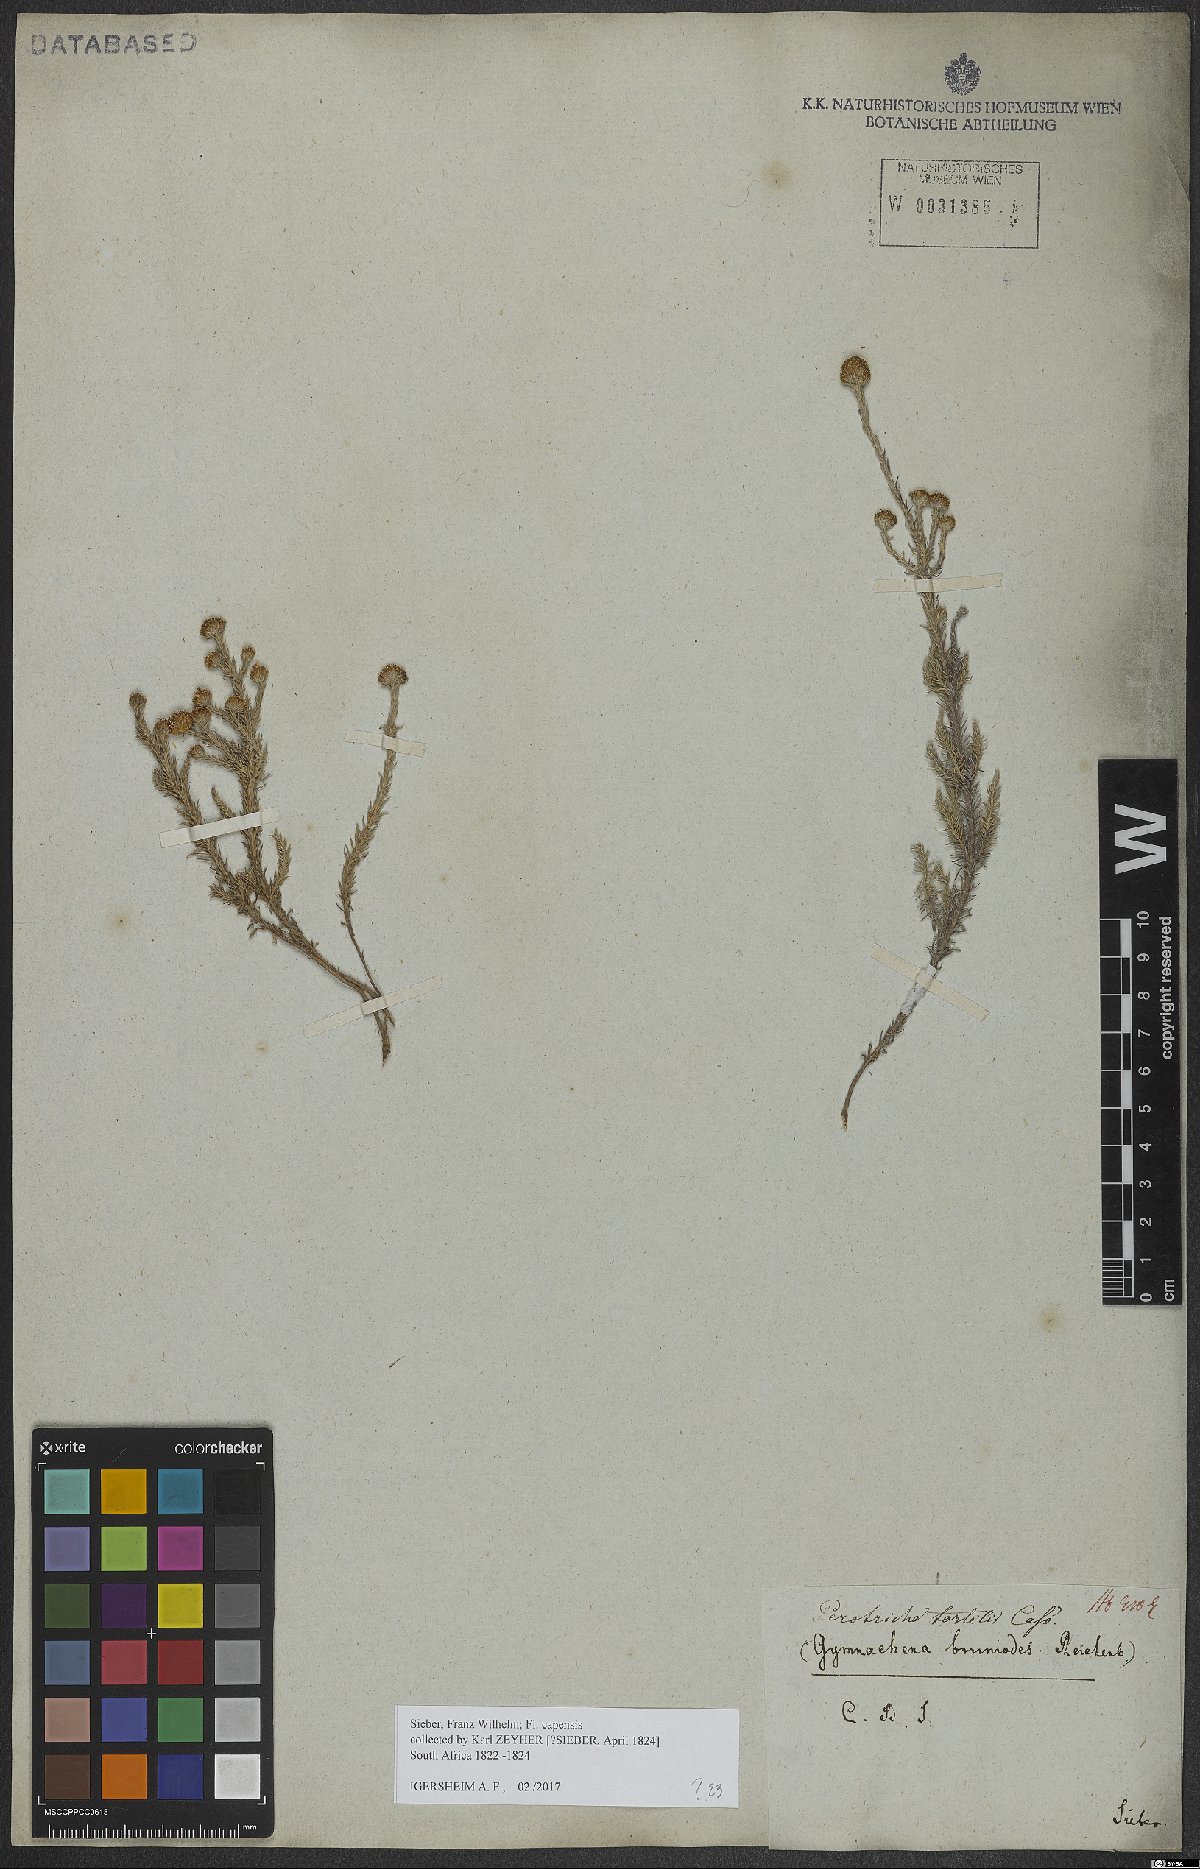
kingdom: Plantae
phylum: Tracheophyta
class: Magnoliopsida
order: Asterales
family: Asteraceae
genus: Stoebe
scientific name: Stoebe capitata
